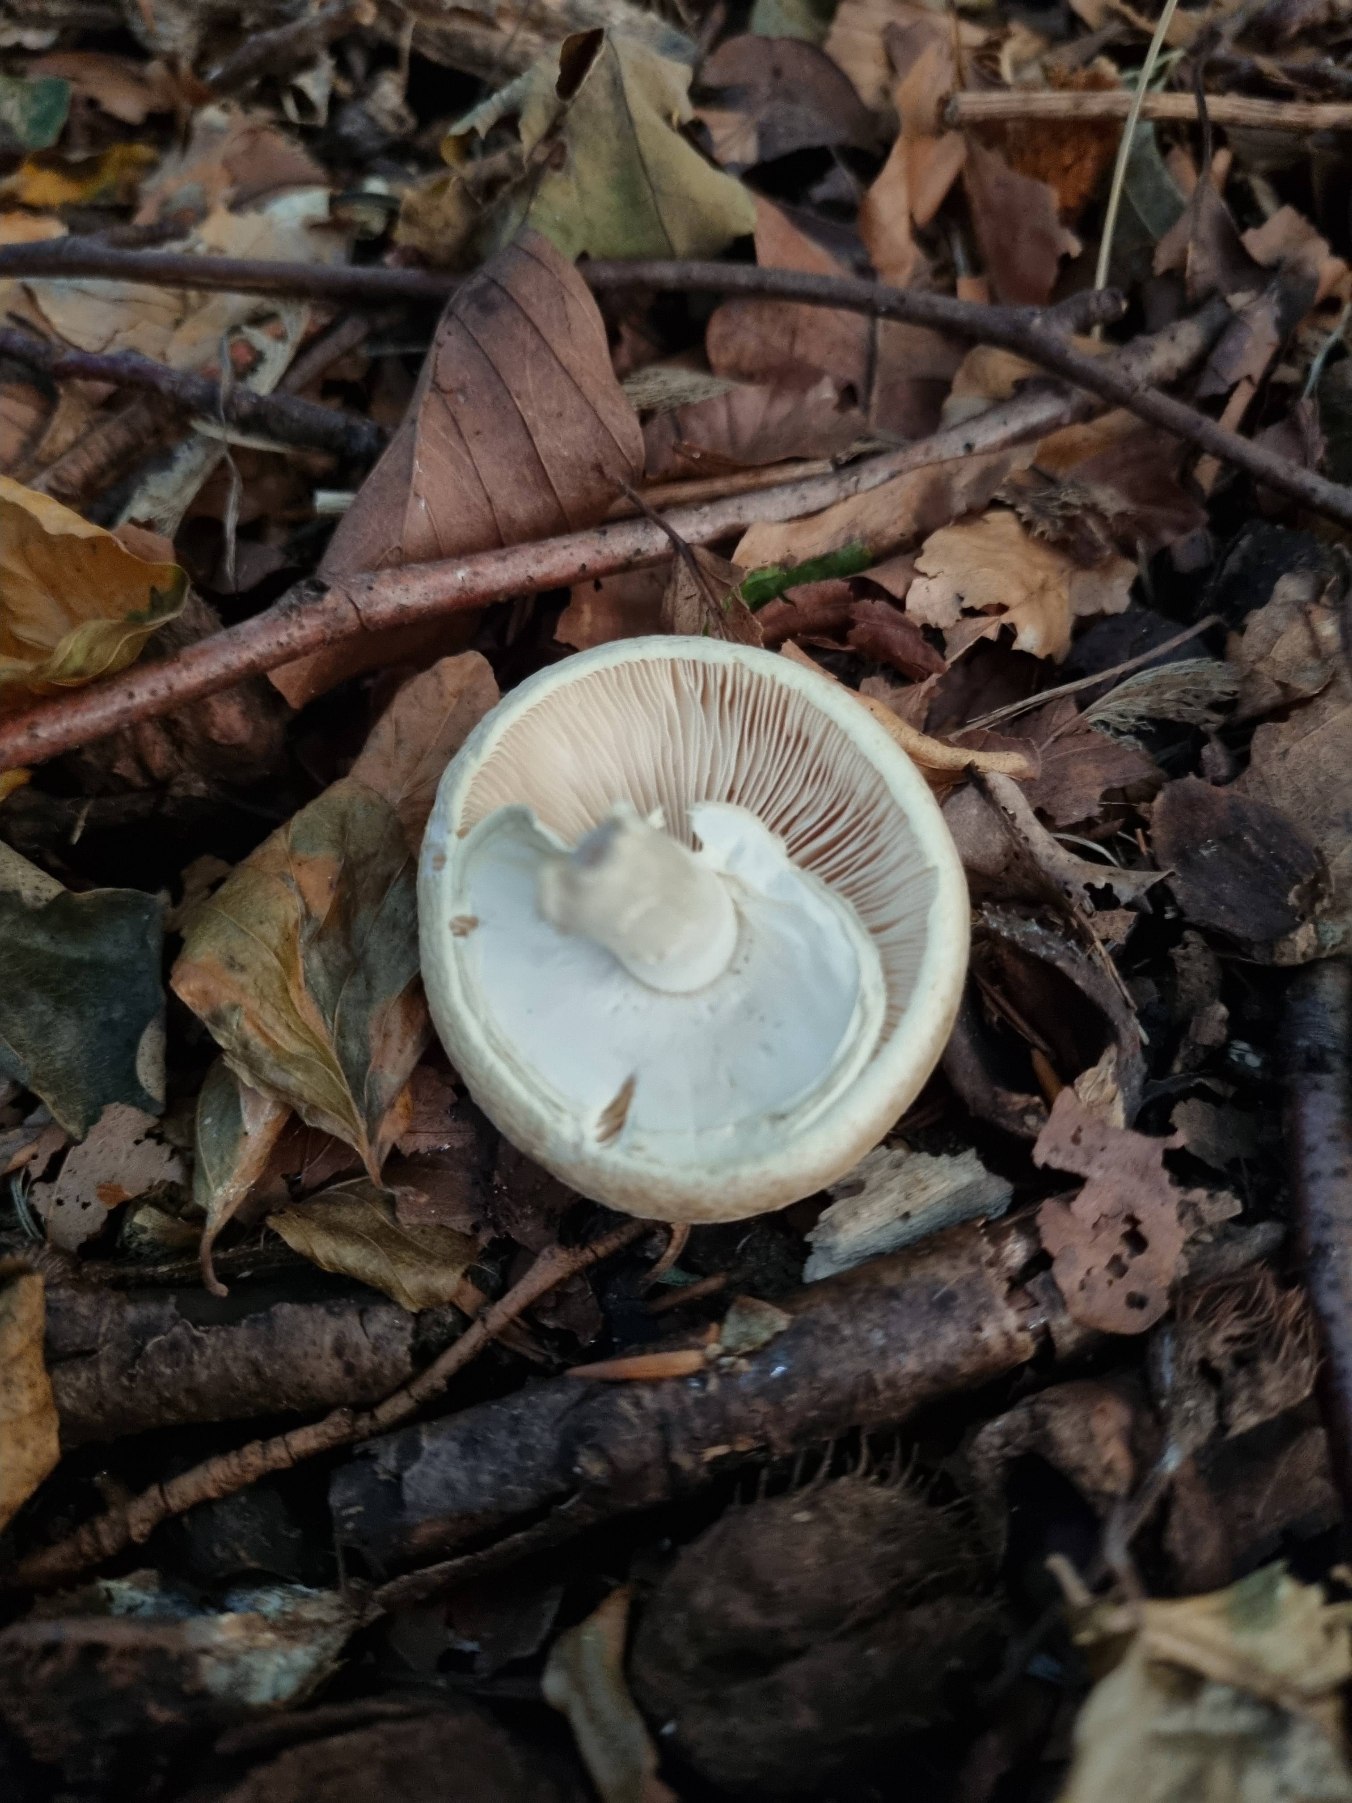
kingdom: Fungi
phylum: Basidiomycota
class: Agaricomycetes
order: Agaricales
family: Amanitaceae
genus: Amanita
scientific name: Amanita citrina
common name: Kugleknoldet fluesvamp
